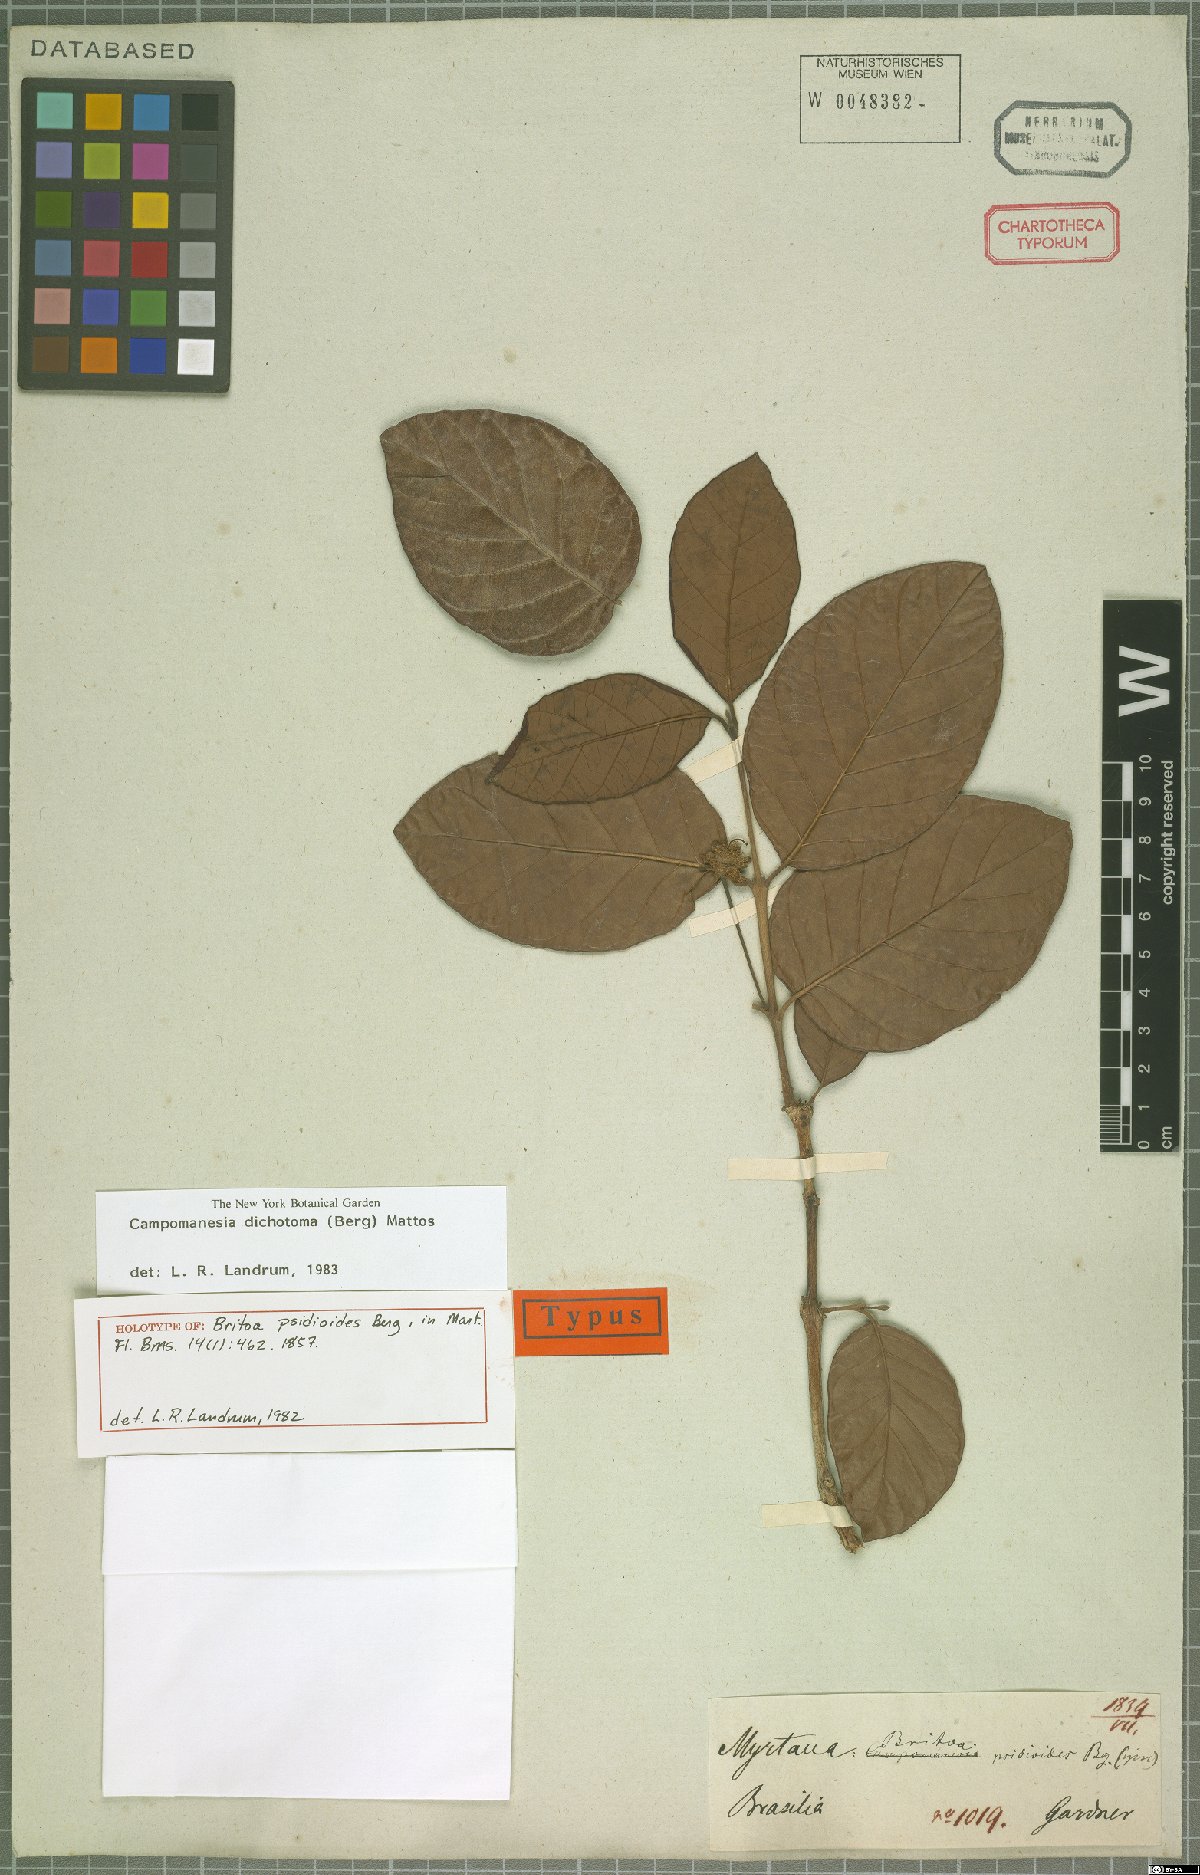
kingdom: Plantae
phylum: Tracheophyta
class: Magnoliopsida
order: Myrtales
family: Myrtaceae
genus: Campomanesia
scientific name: Campomanesia dichotoma
